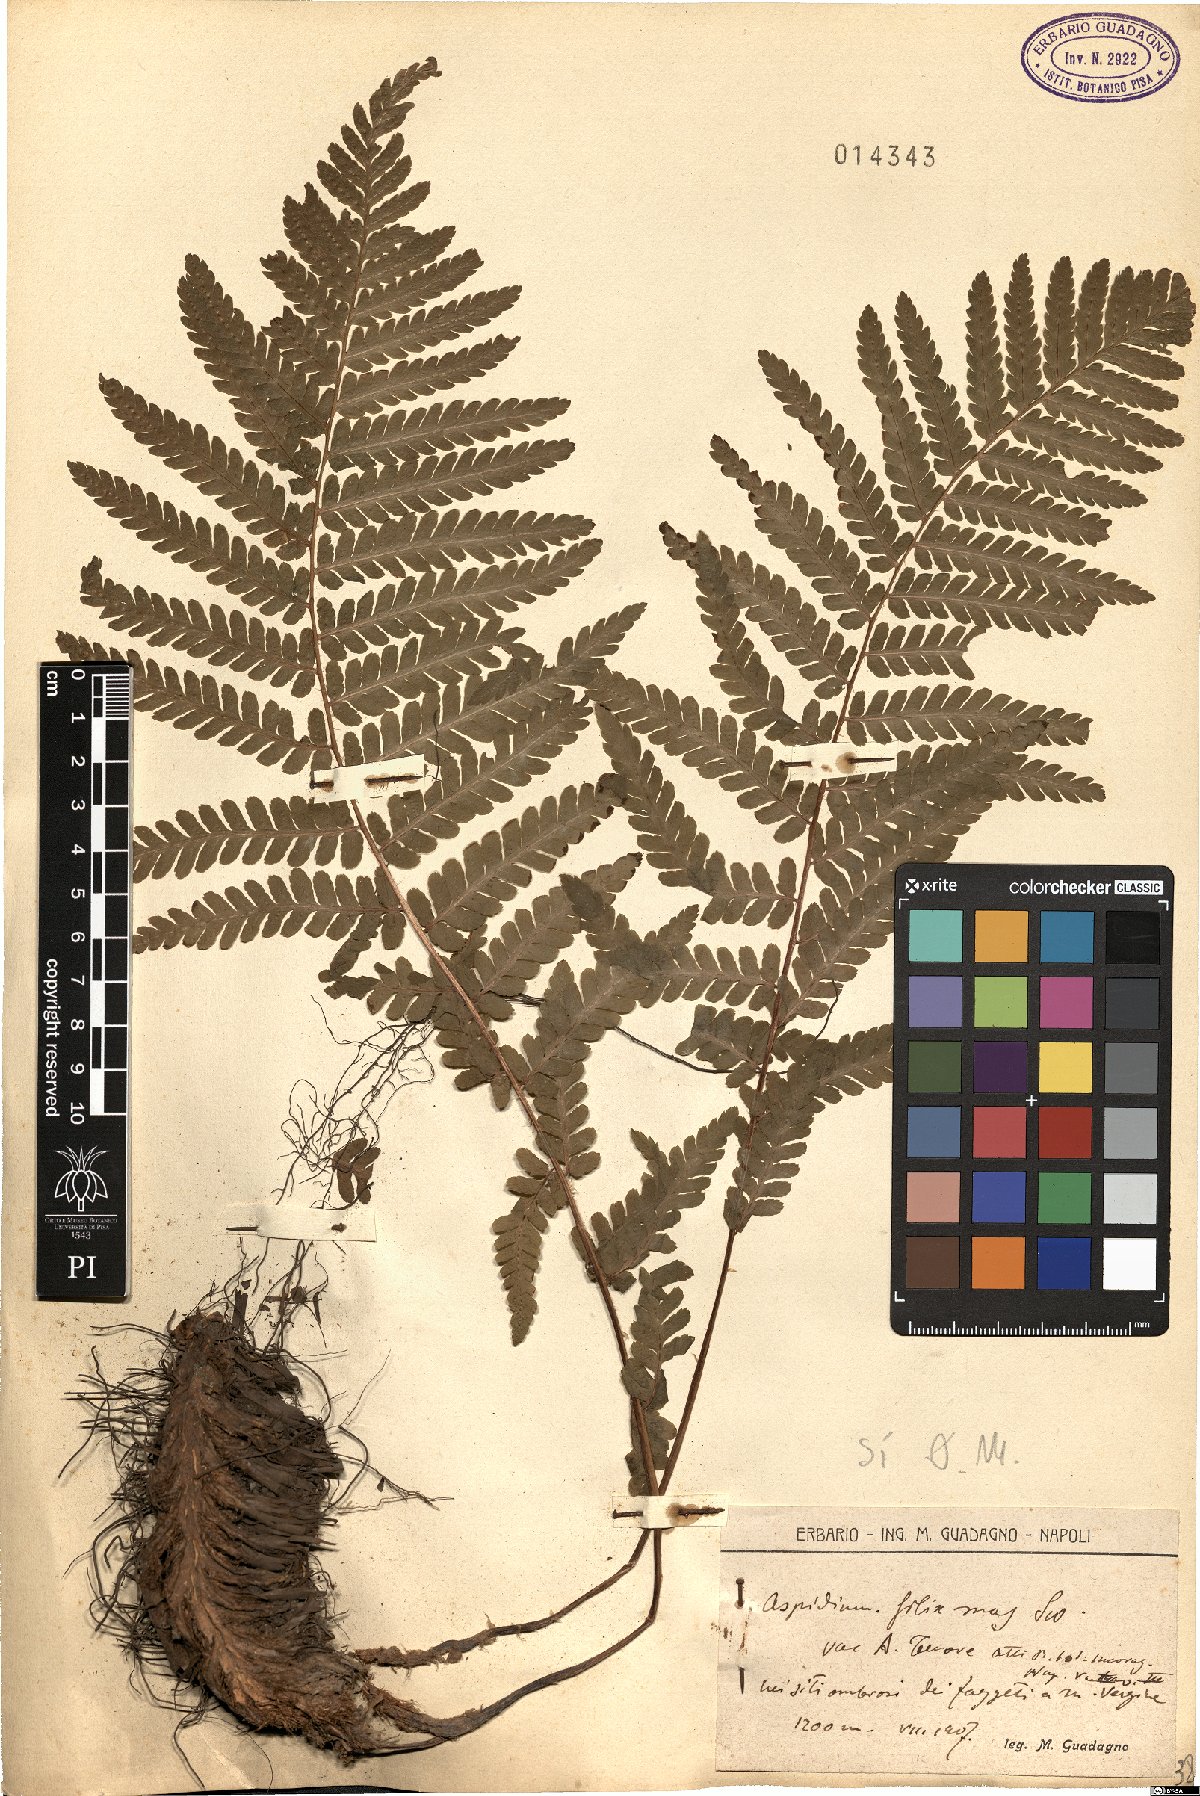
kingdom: Plantae
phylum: Tracheophyta
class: Polypodiopsida
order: Polypodiales
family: Dryopteridaceae
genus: Dryopteris
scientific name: Dryopteris filix-mas
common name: Male fern
